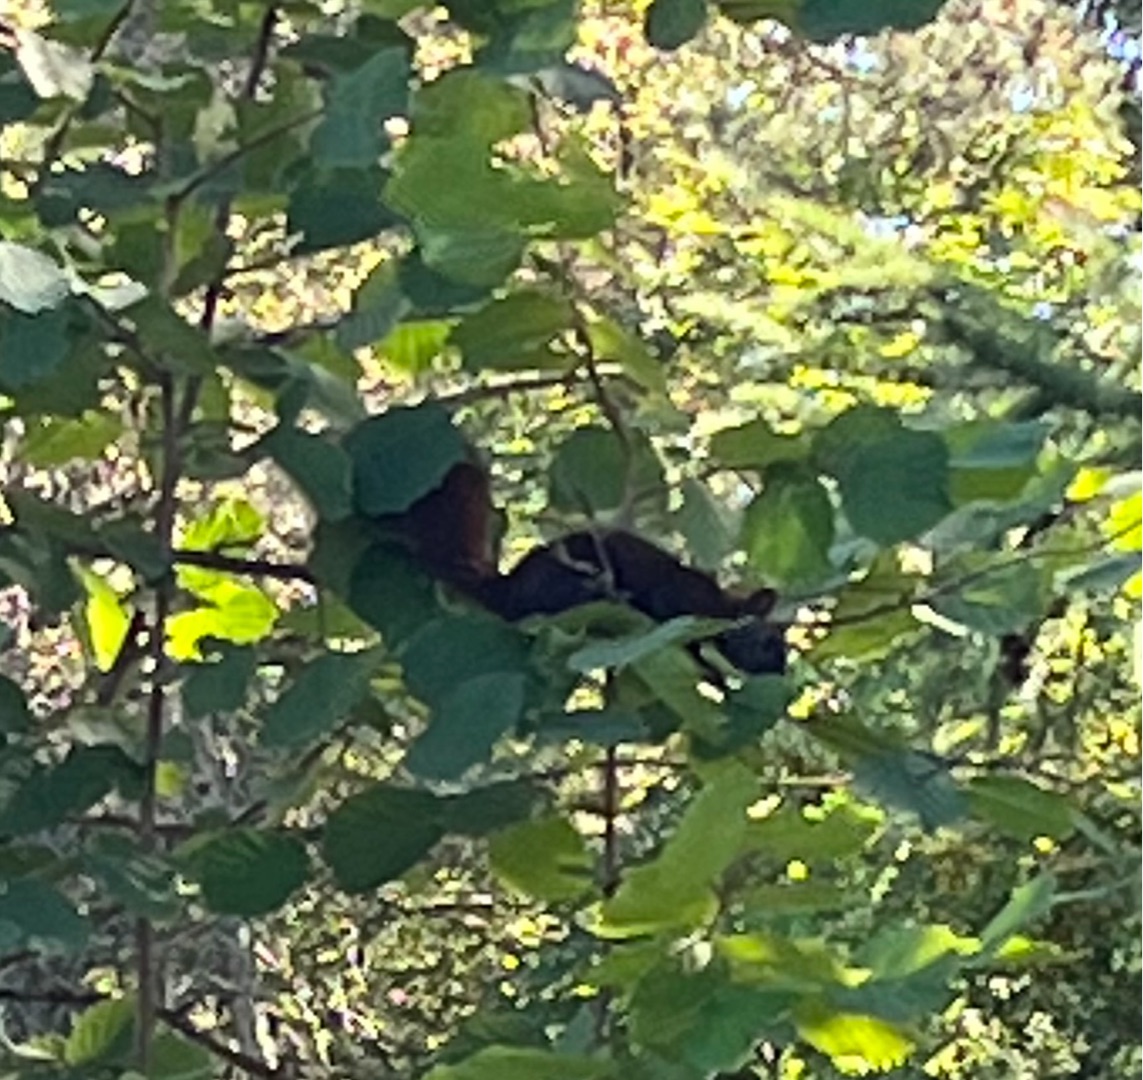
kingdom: Animalia
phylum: Chordata
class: Mammalia
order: Rodentia
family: Sciuridae
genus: Sciurus
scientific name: Sciurus vulgaris
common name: Egern
